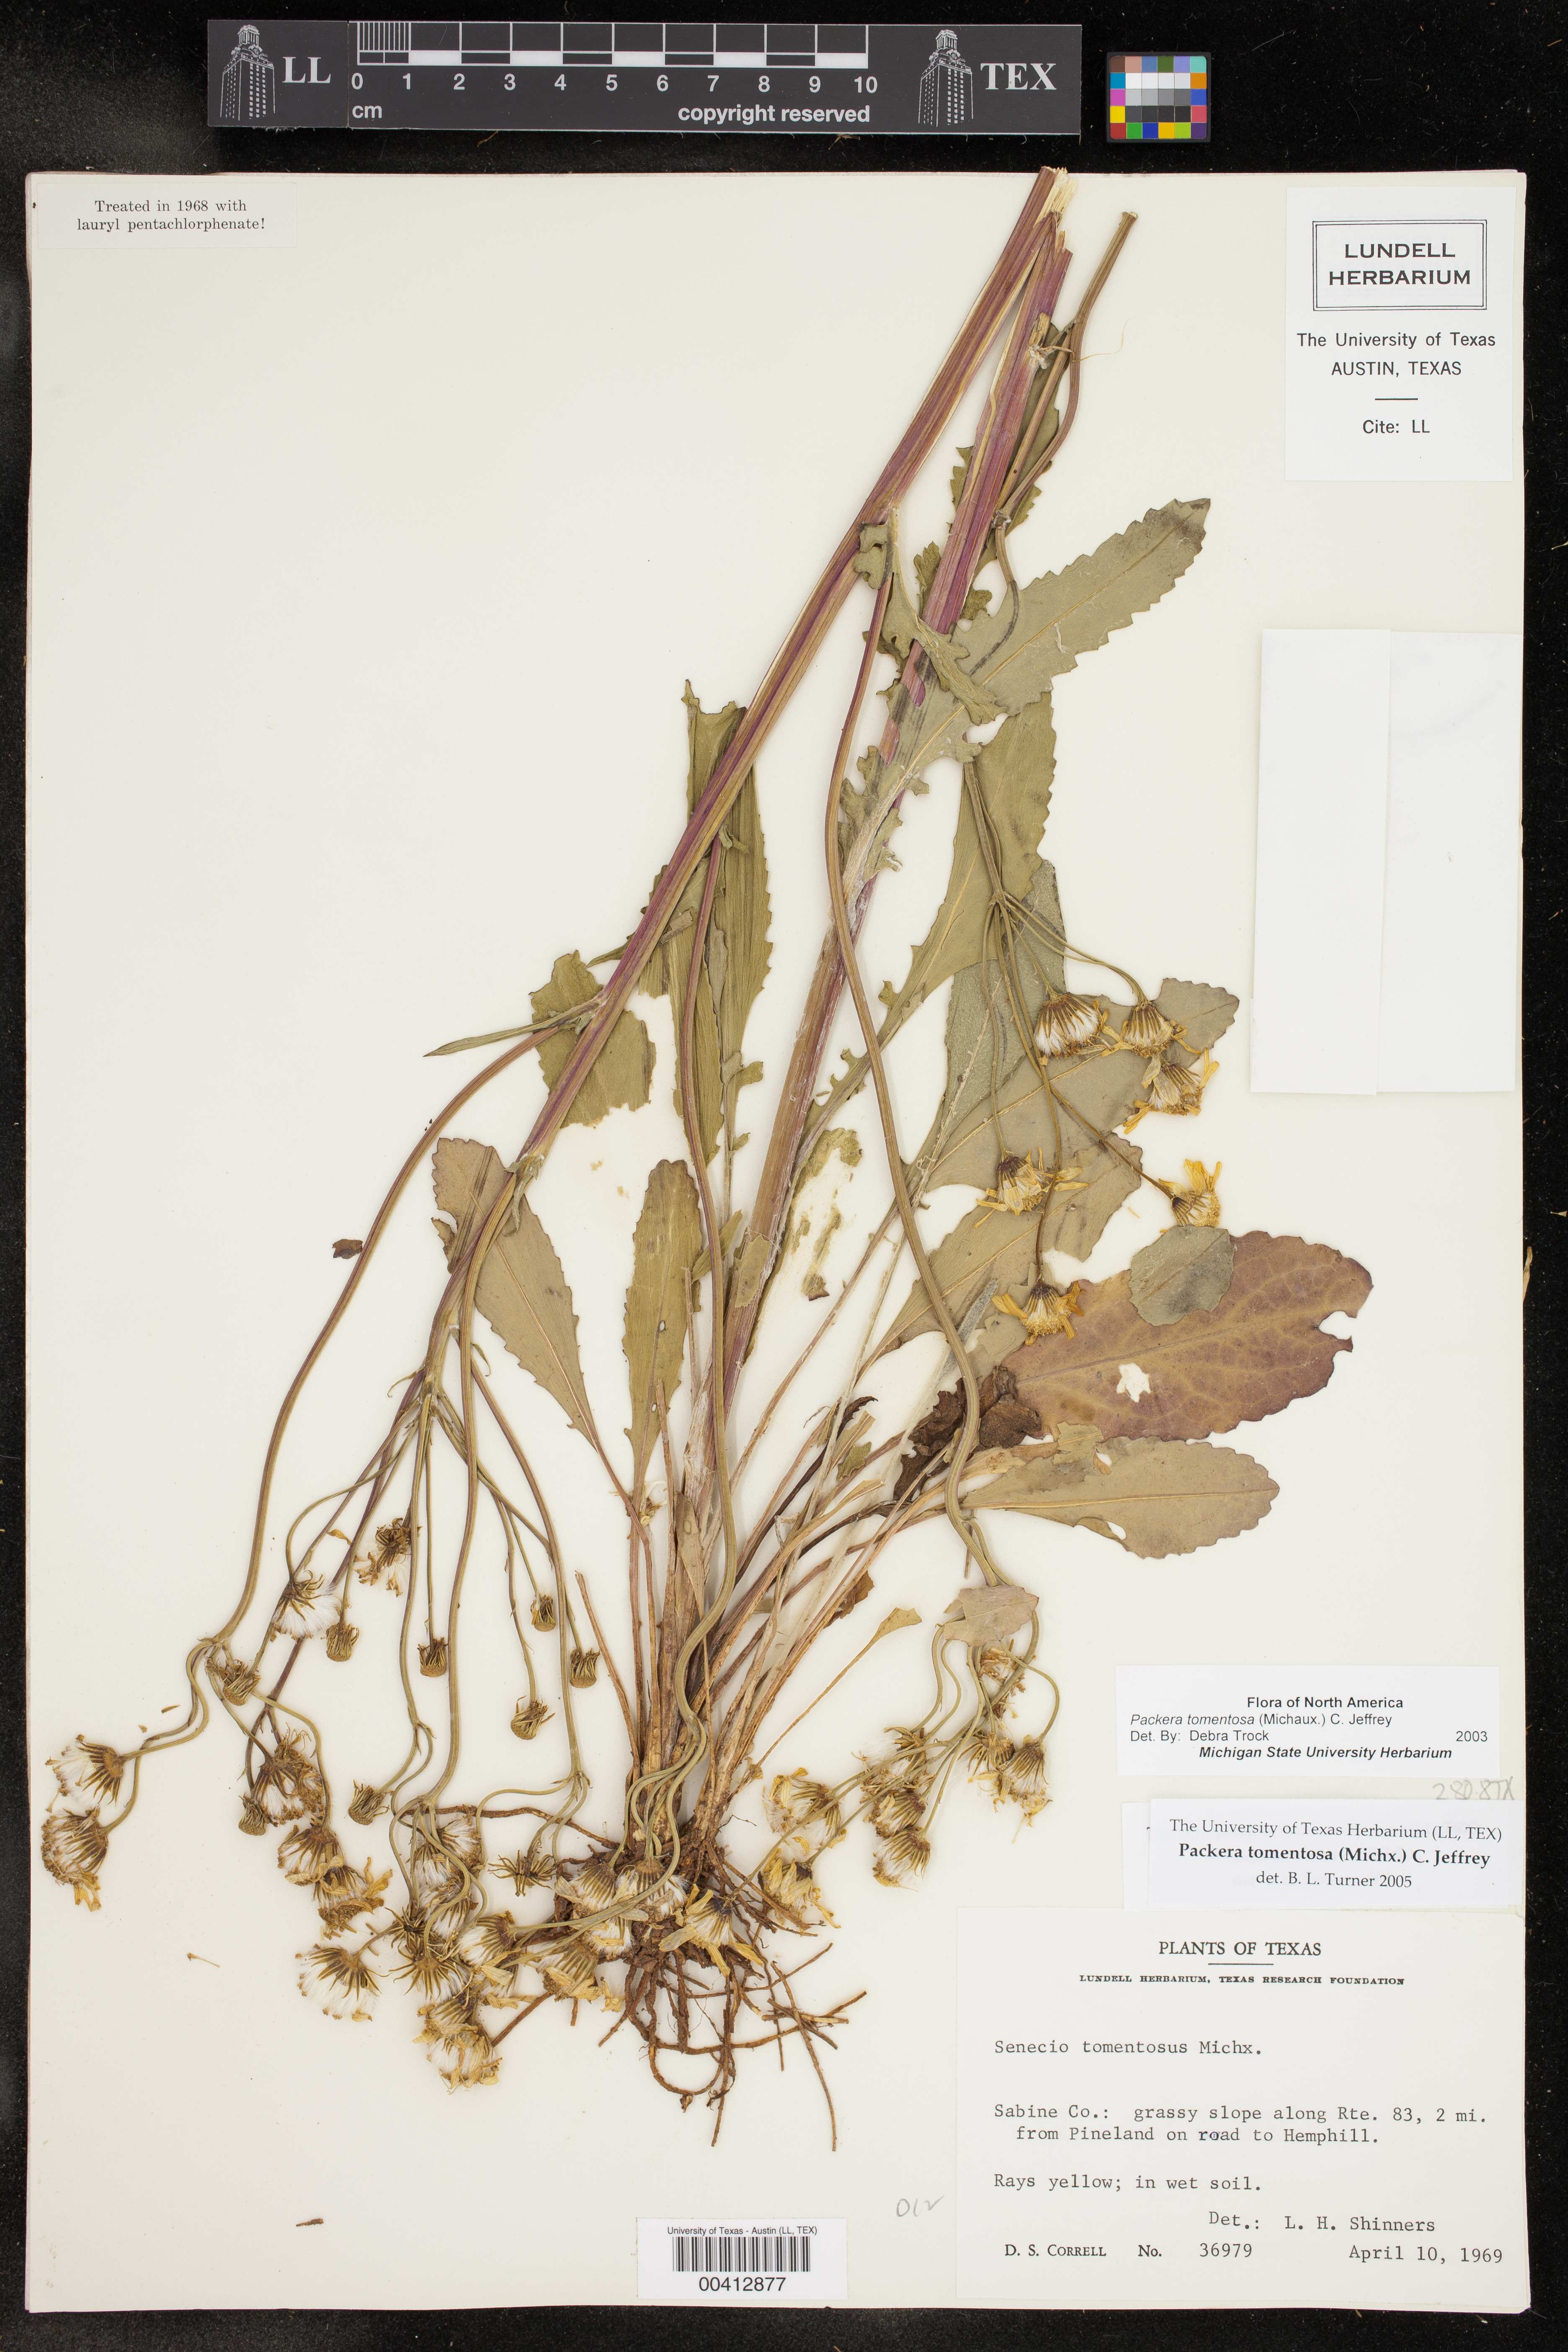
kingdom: Plantae
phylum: Tracheophyta
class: Magnoliopsida
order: Asterales
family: Asteraceae
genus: Packera
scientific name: Packera dubia
